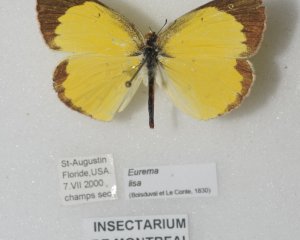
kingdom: Animalia
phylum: Arthropoda
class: Insecta
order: Lepidoptera
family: Pieridae
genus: Pyrisitia
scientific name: Pyrisitia lisa
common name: Little Yellow
